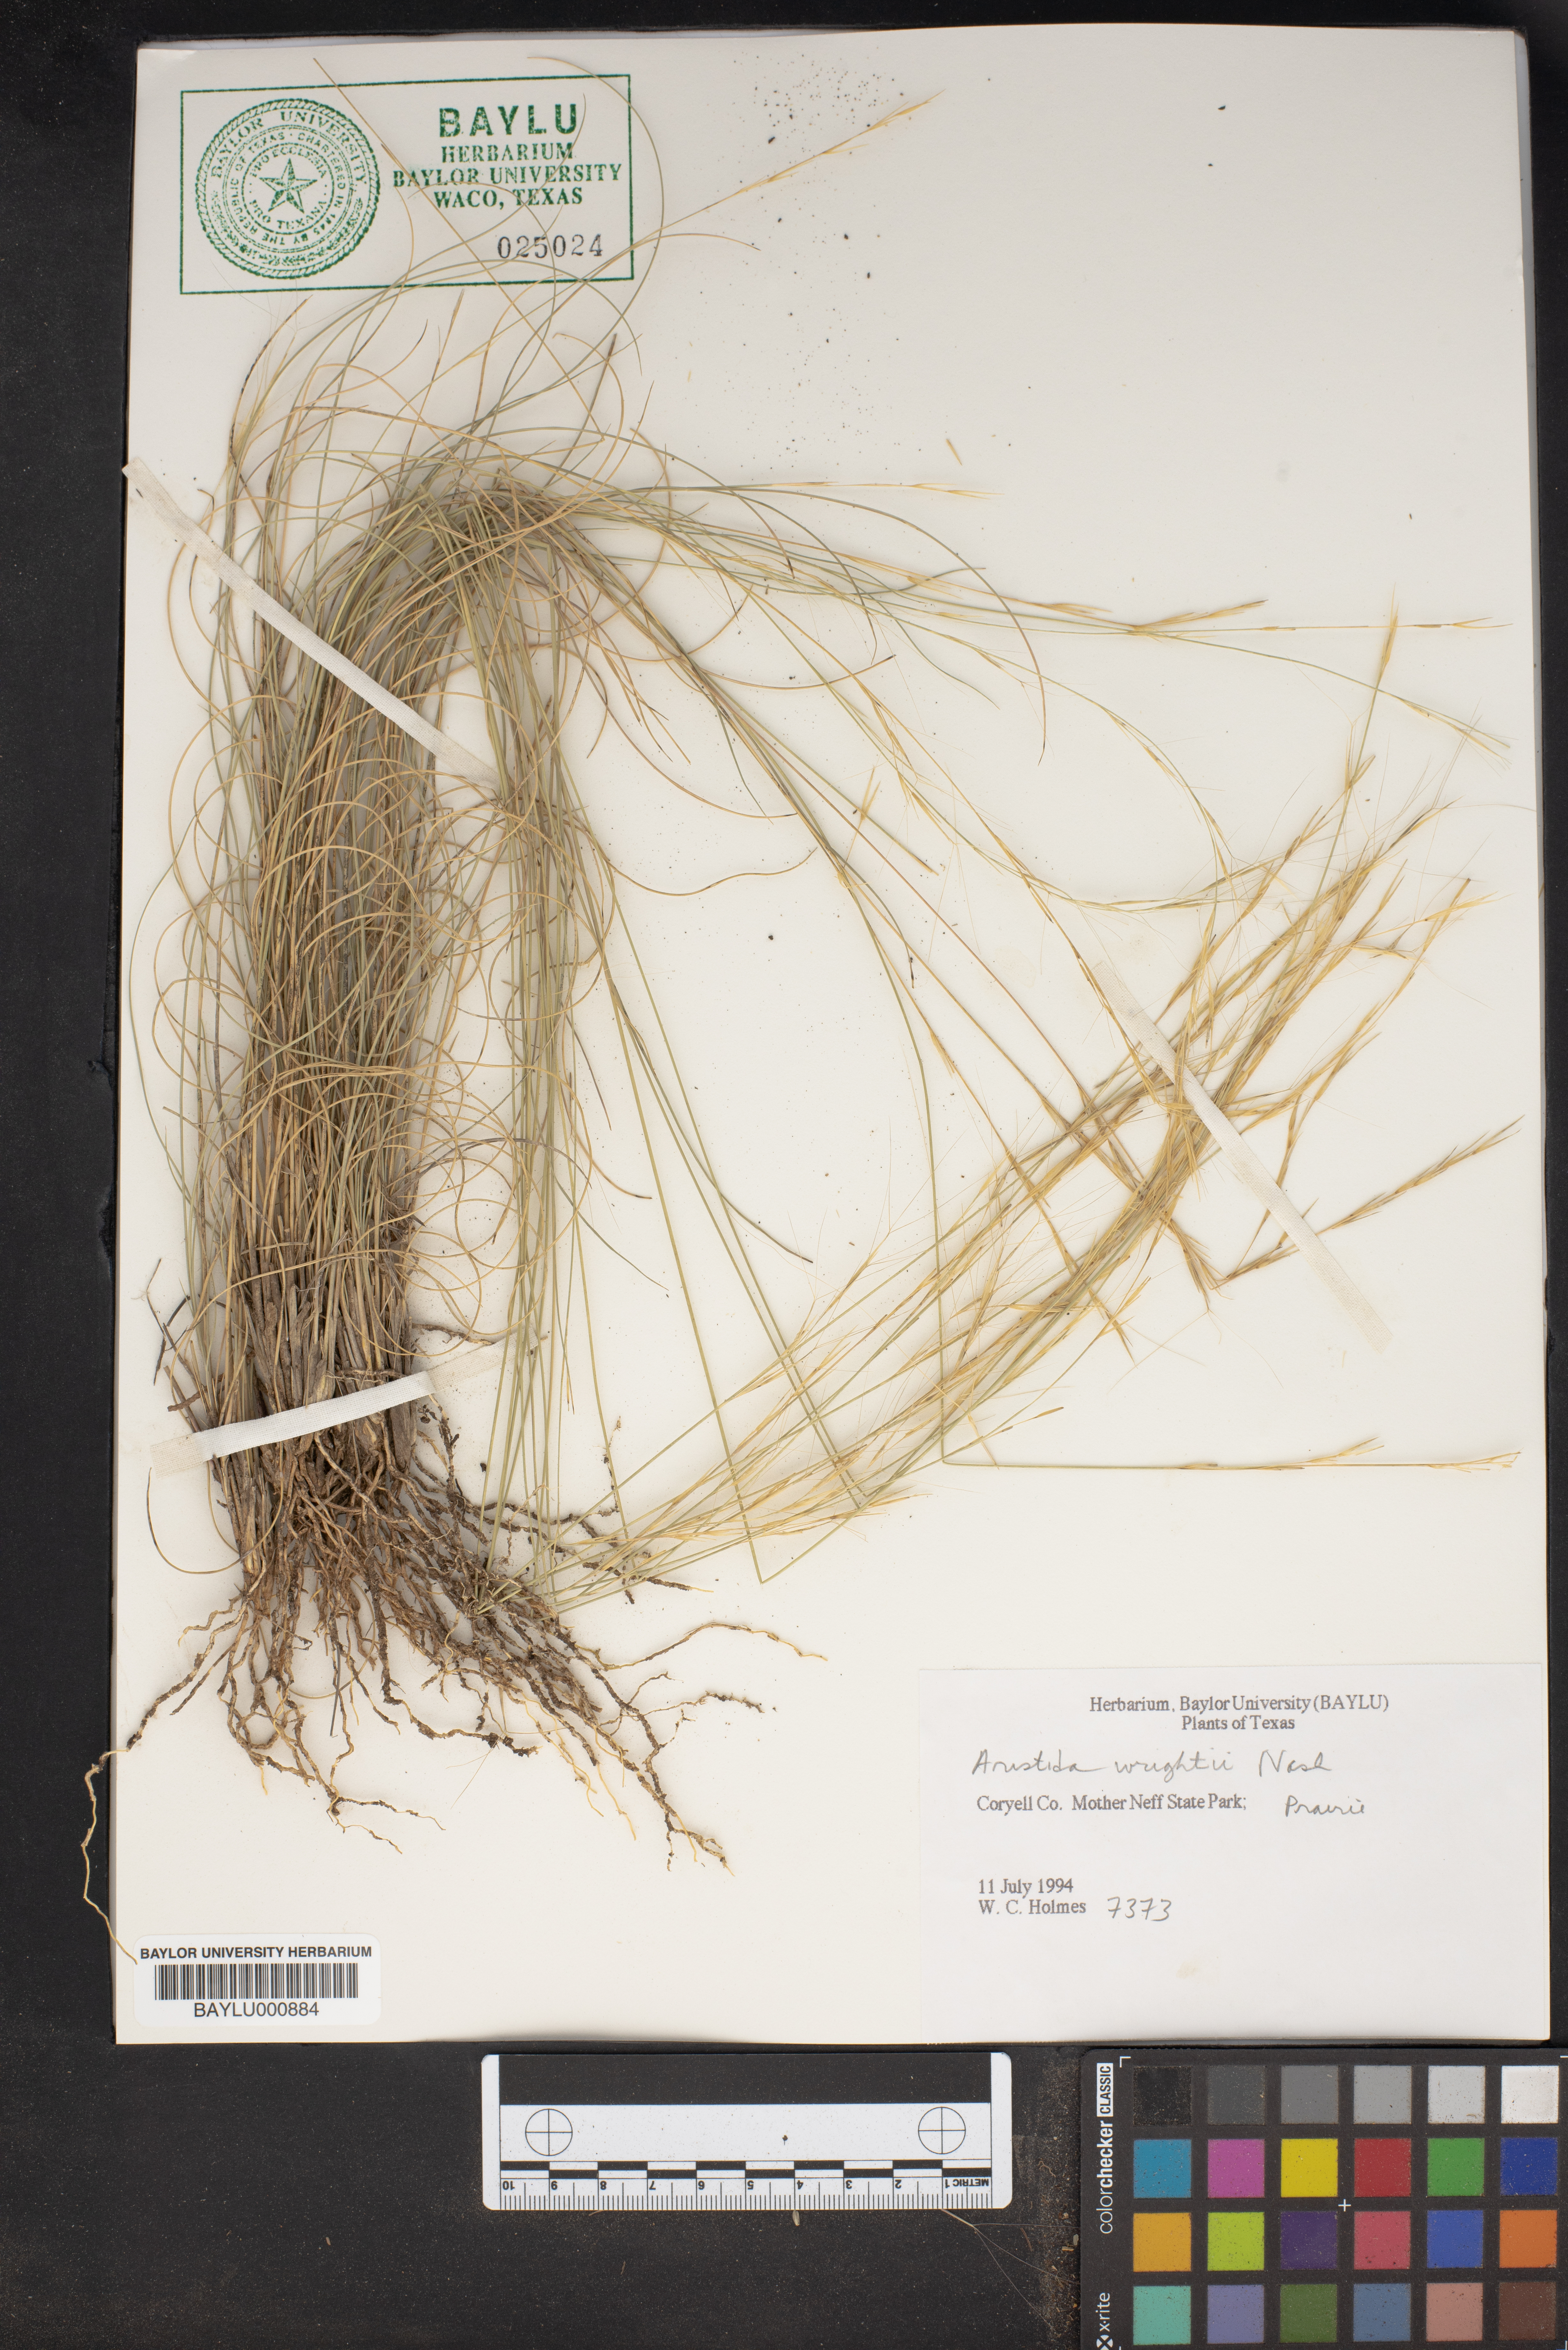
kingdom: Plantae
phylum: Tracheophyta
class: Liliopsida
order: Poales
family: Poaceae
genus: Aristida
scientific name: Aristida wrightii
